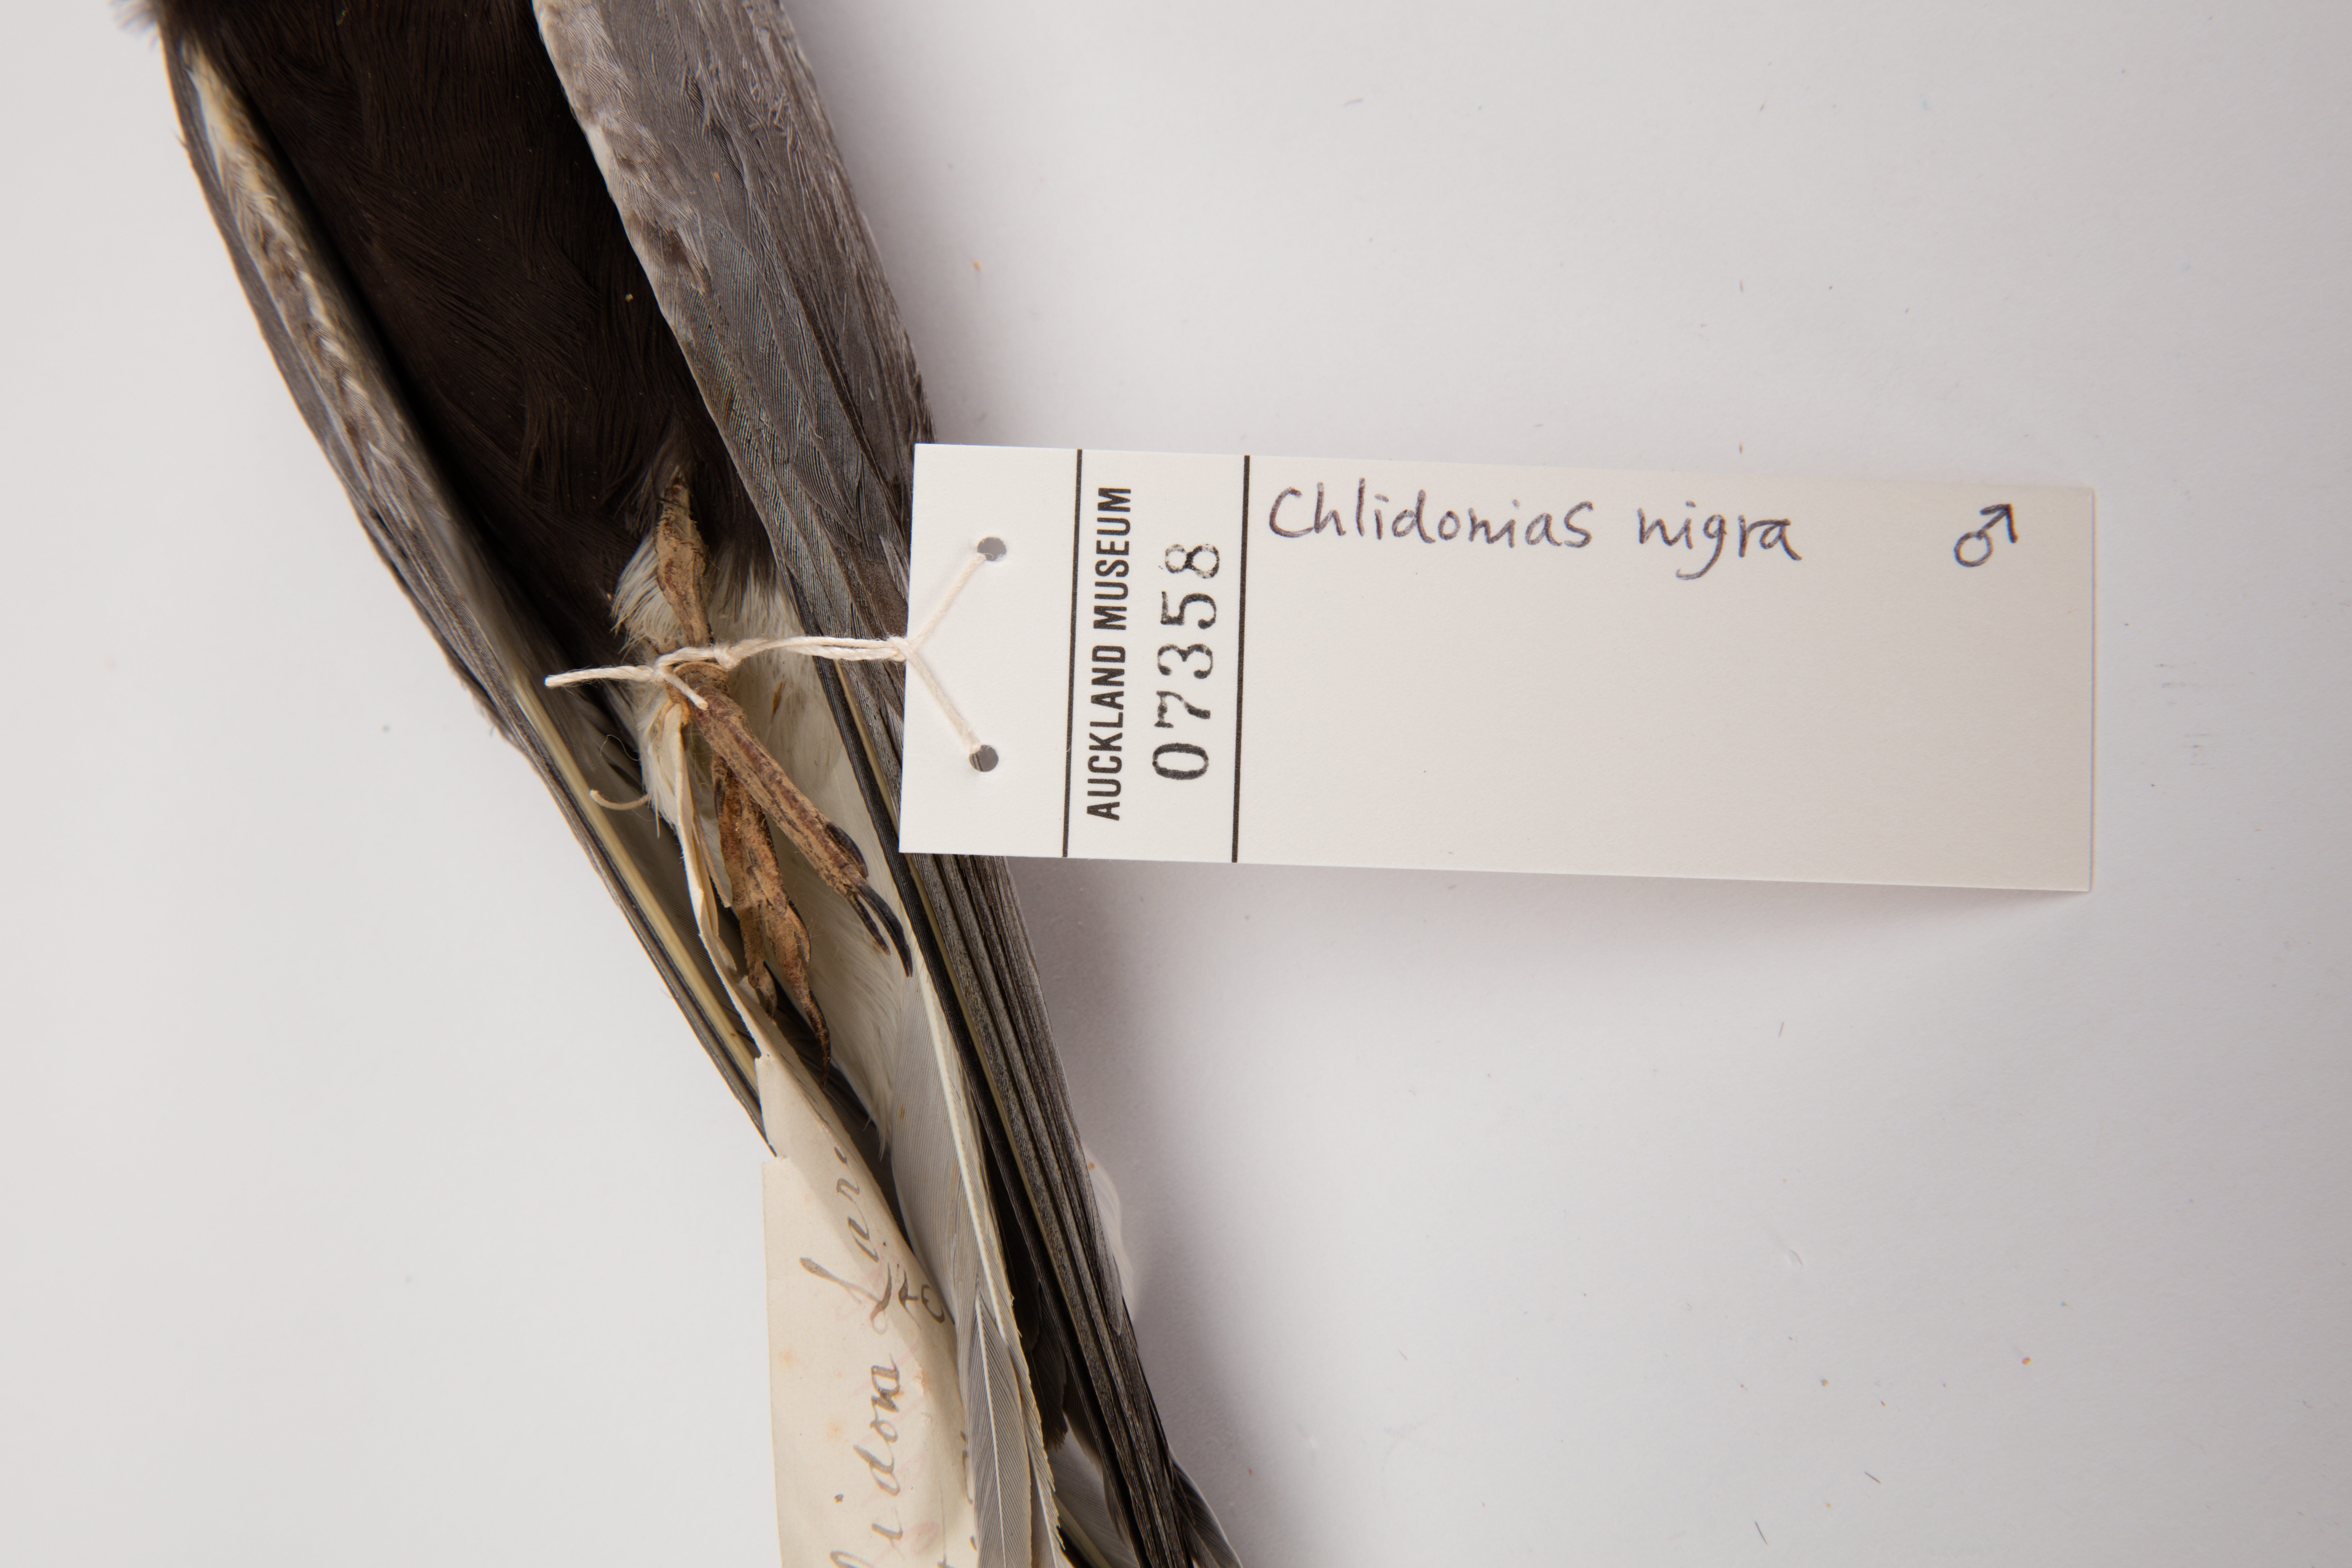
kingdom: Animalia
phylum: Chordata
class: Aves
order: Charadriiformes
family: Laridae
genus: Chlidonias
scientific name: Chlidonias niger
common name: Black tern
